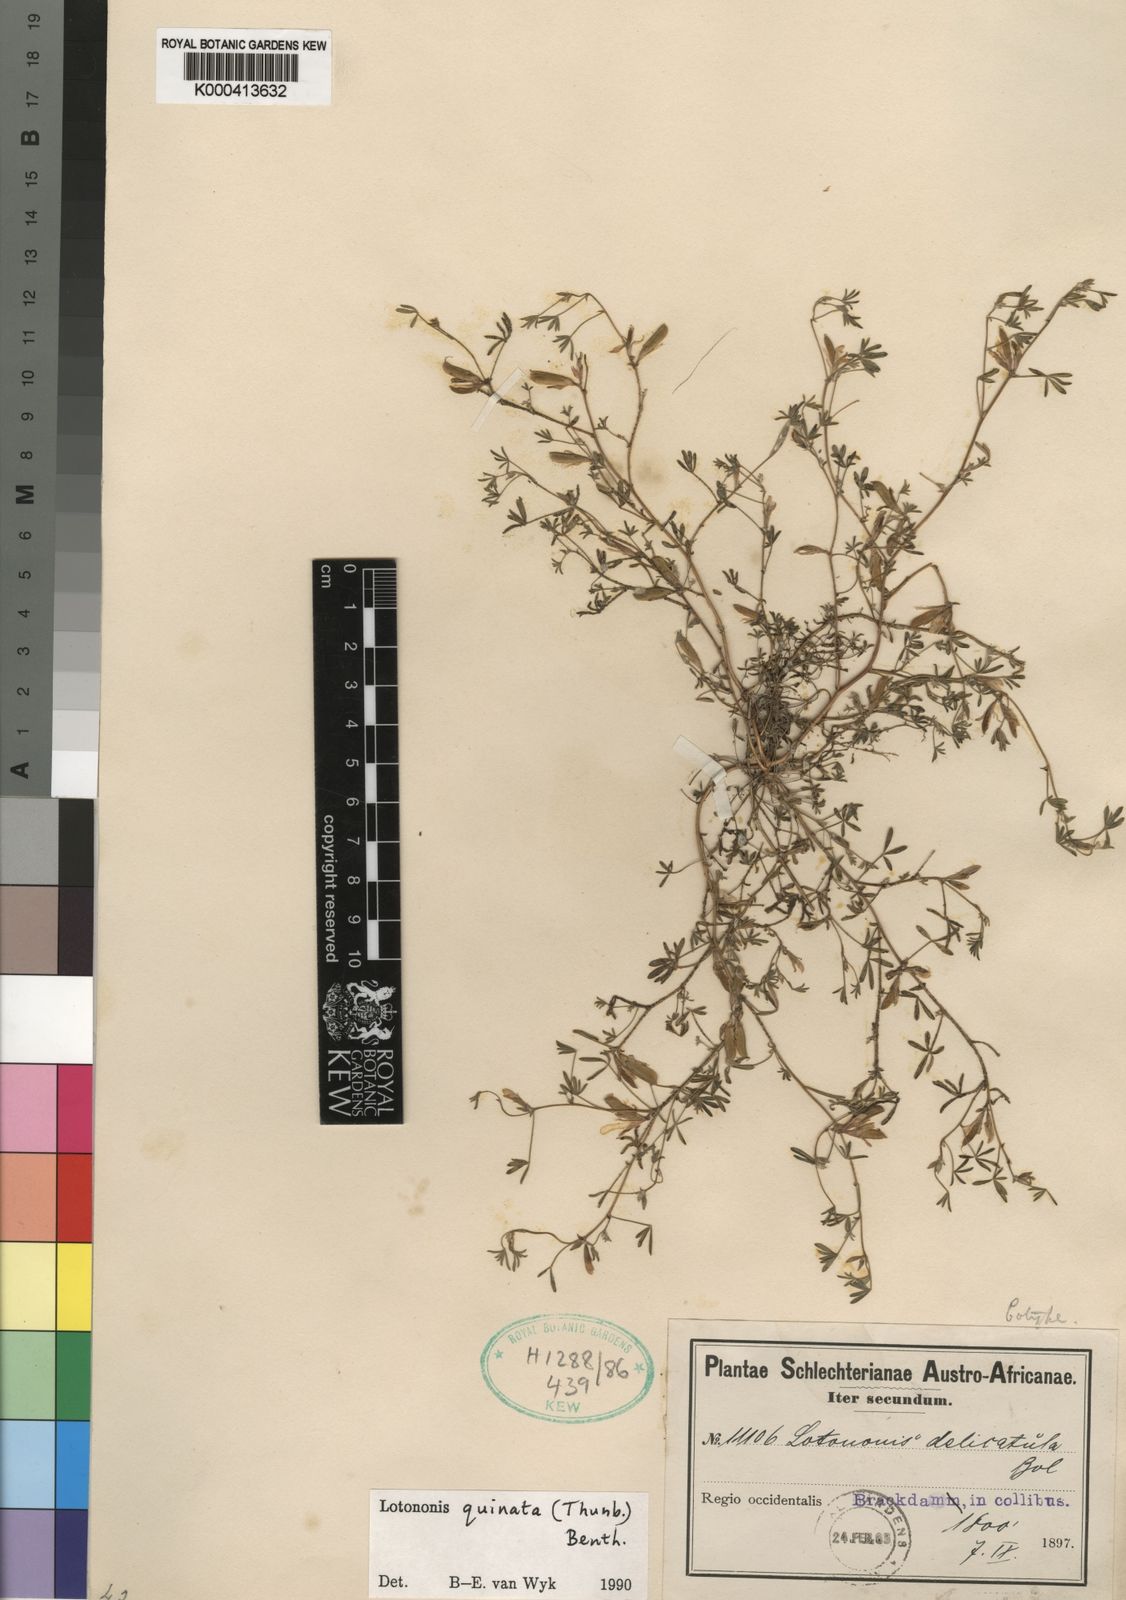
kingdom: Plantae
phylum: Tracheophyta
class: Magnoliopsida
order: Fabales
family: Fabaceae
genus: Leobordea
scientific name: Leobordea quinata
